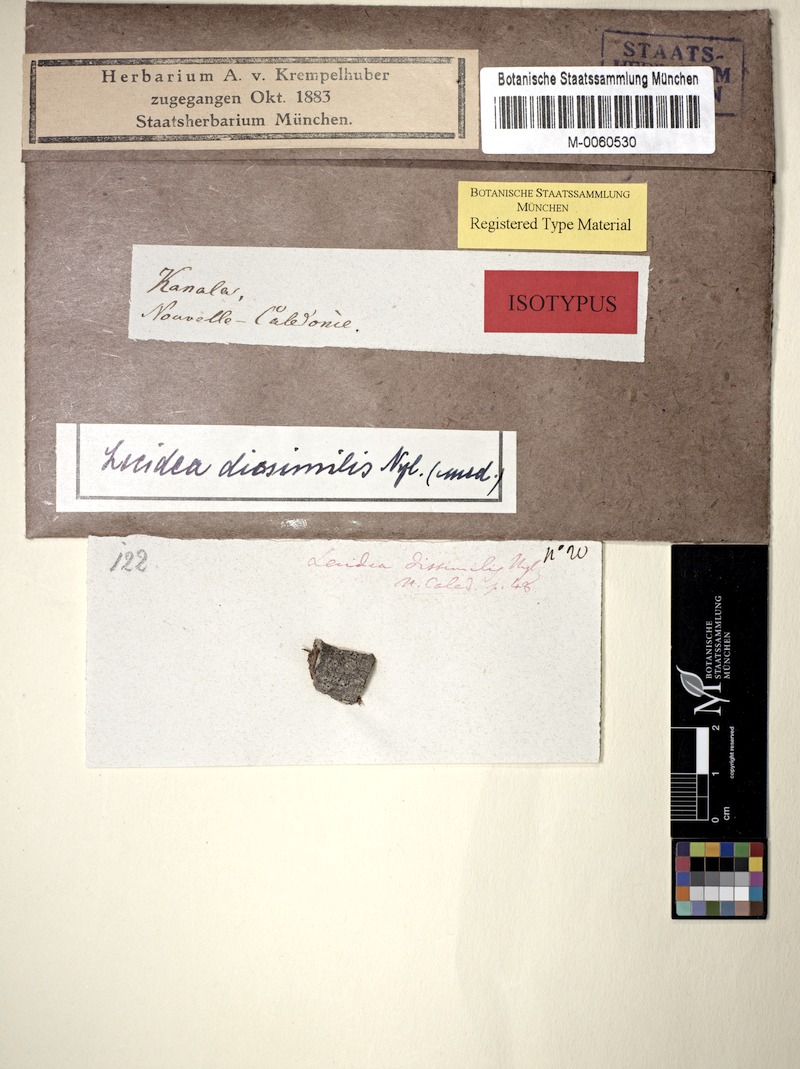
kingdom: Fungi
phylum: Ascomycota
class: Lecanoromycetes
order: Caliciales
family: Caliciaceae
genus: Cratiria
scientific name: Cratiria dissimilis
